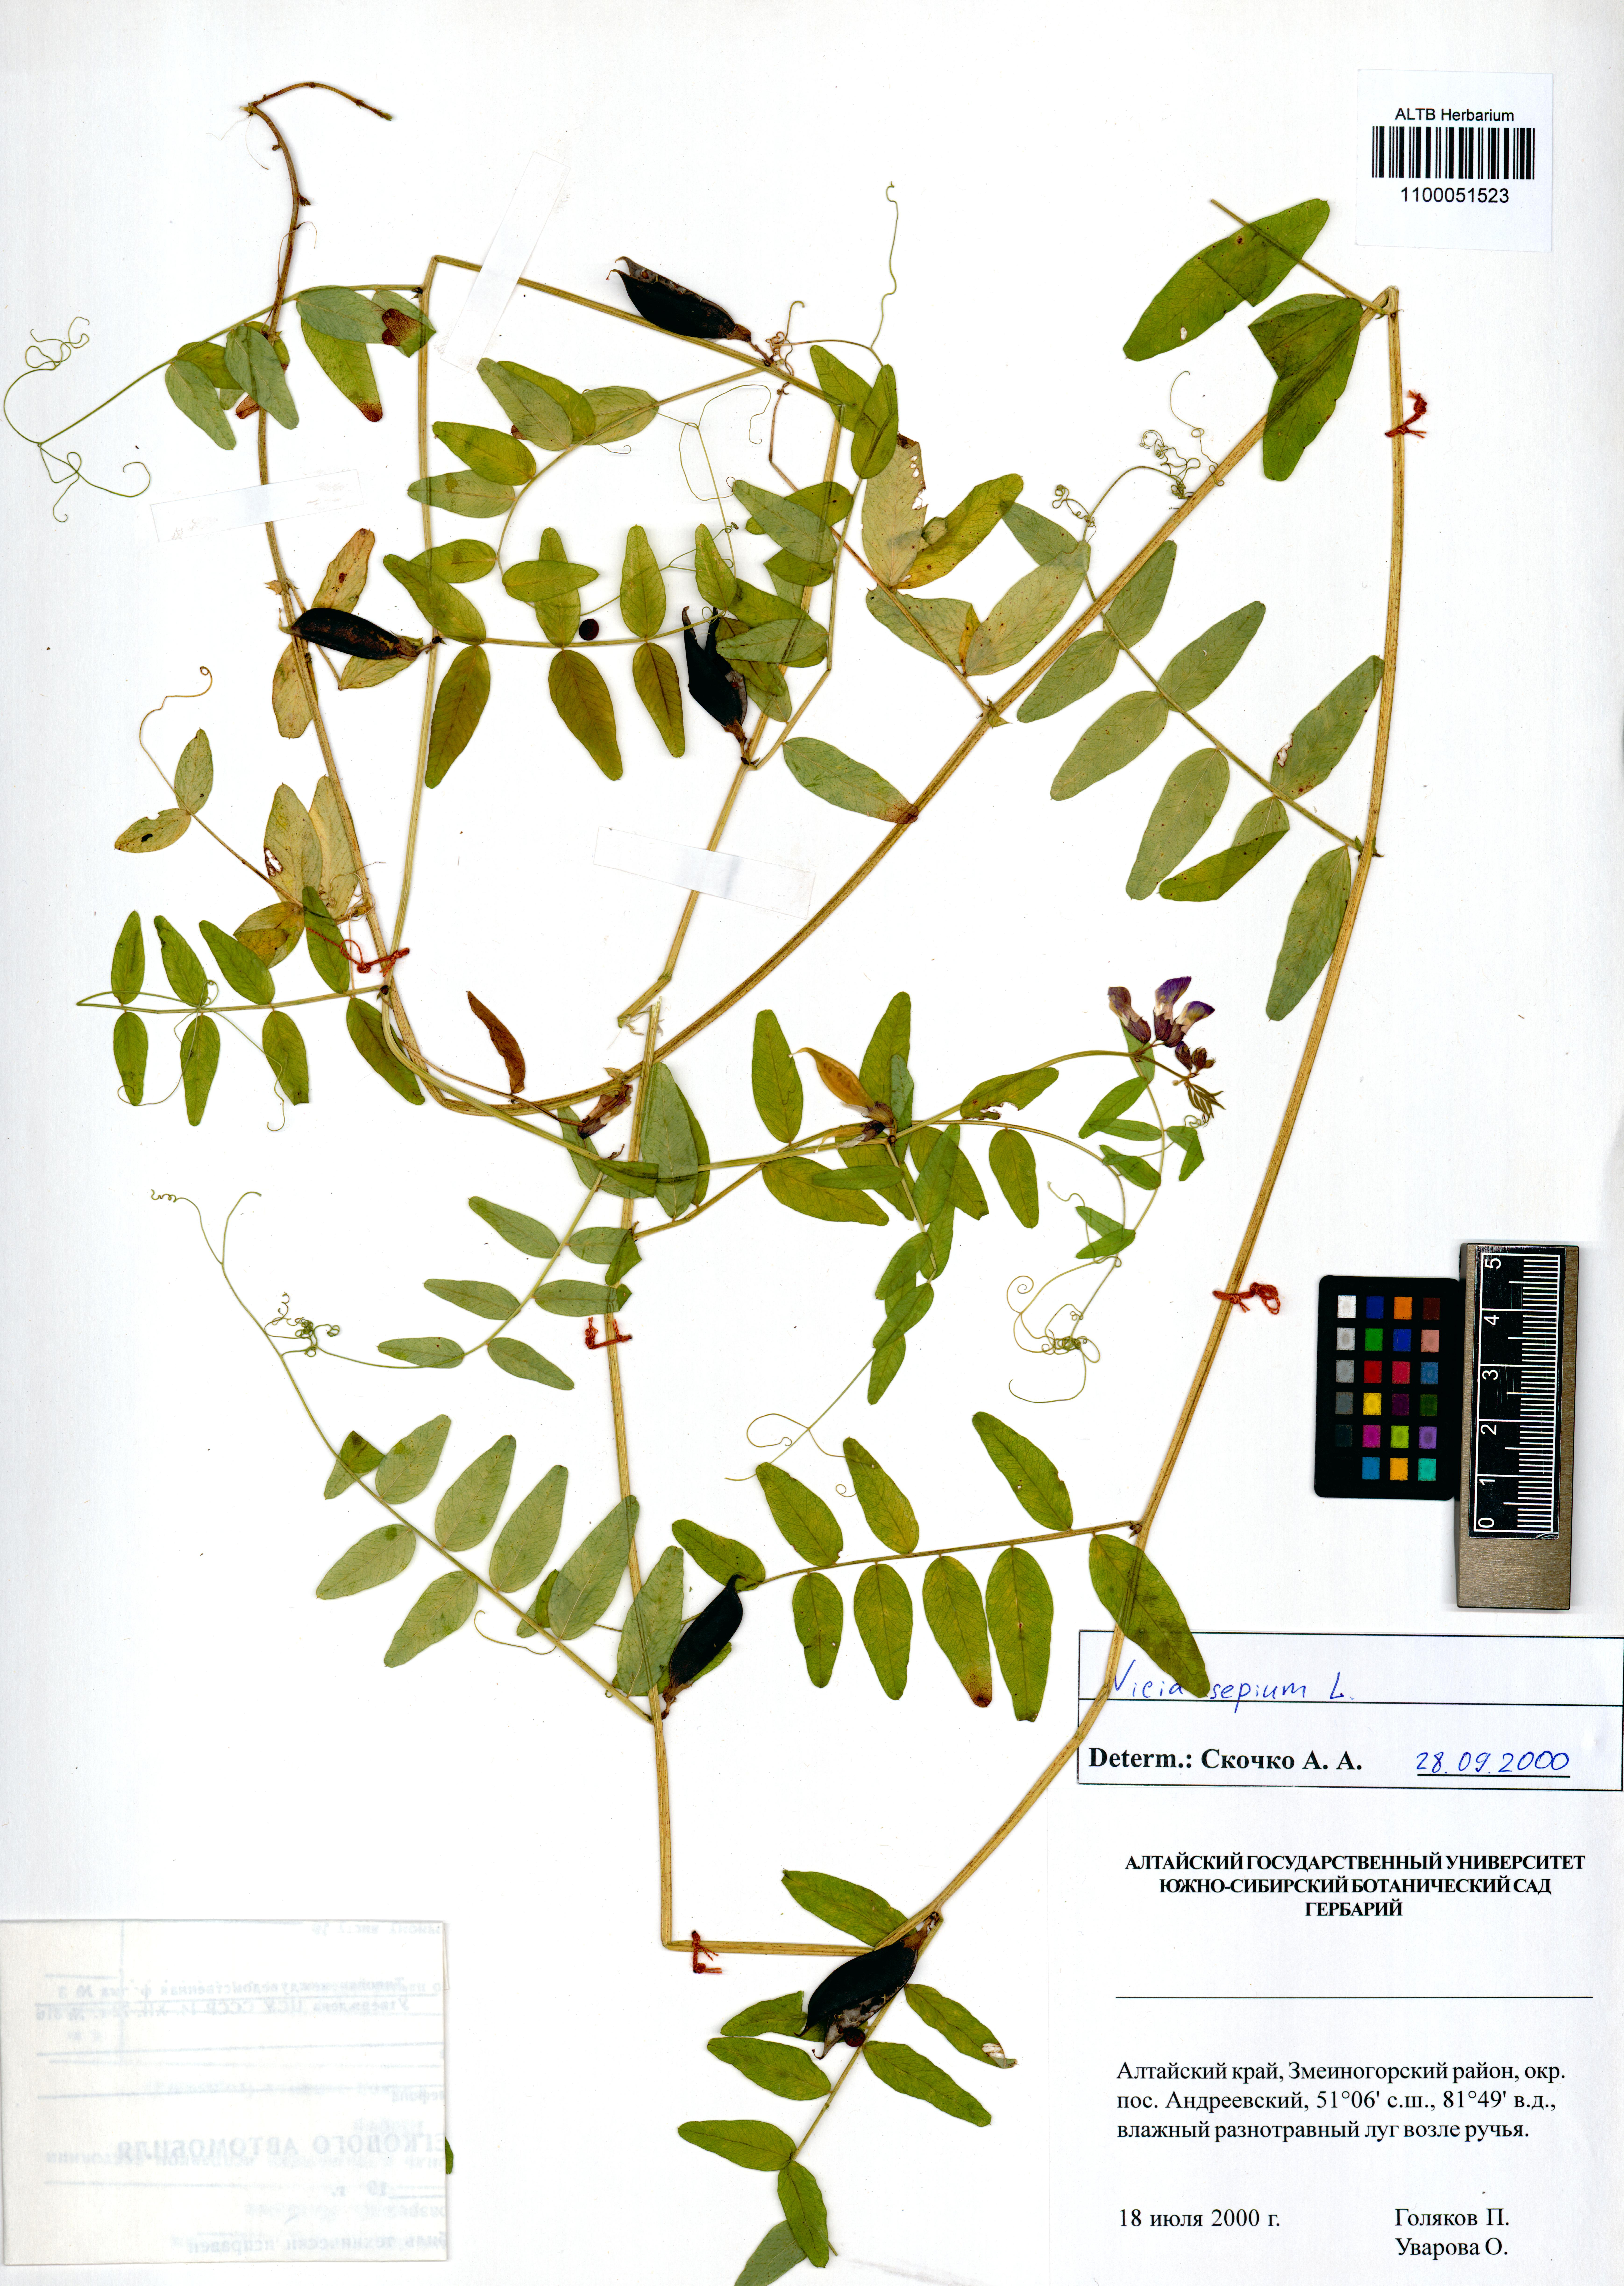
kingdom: Plantae
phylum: Tracheophyta
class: Magnoliopsida
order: Fabales
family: Fabaceae
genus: Vicia
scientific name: Vicia sepium
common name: Bush vetch
